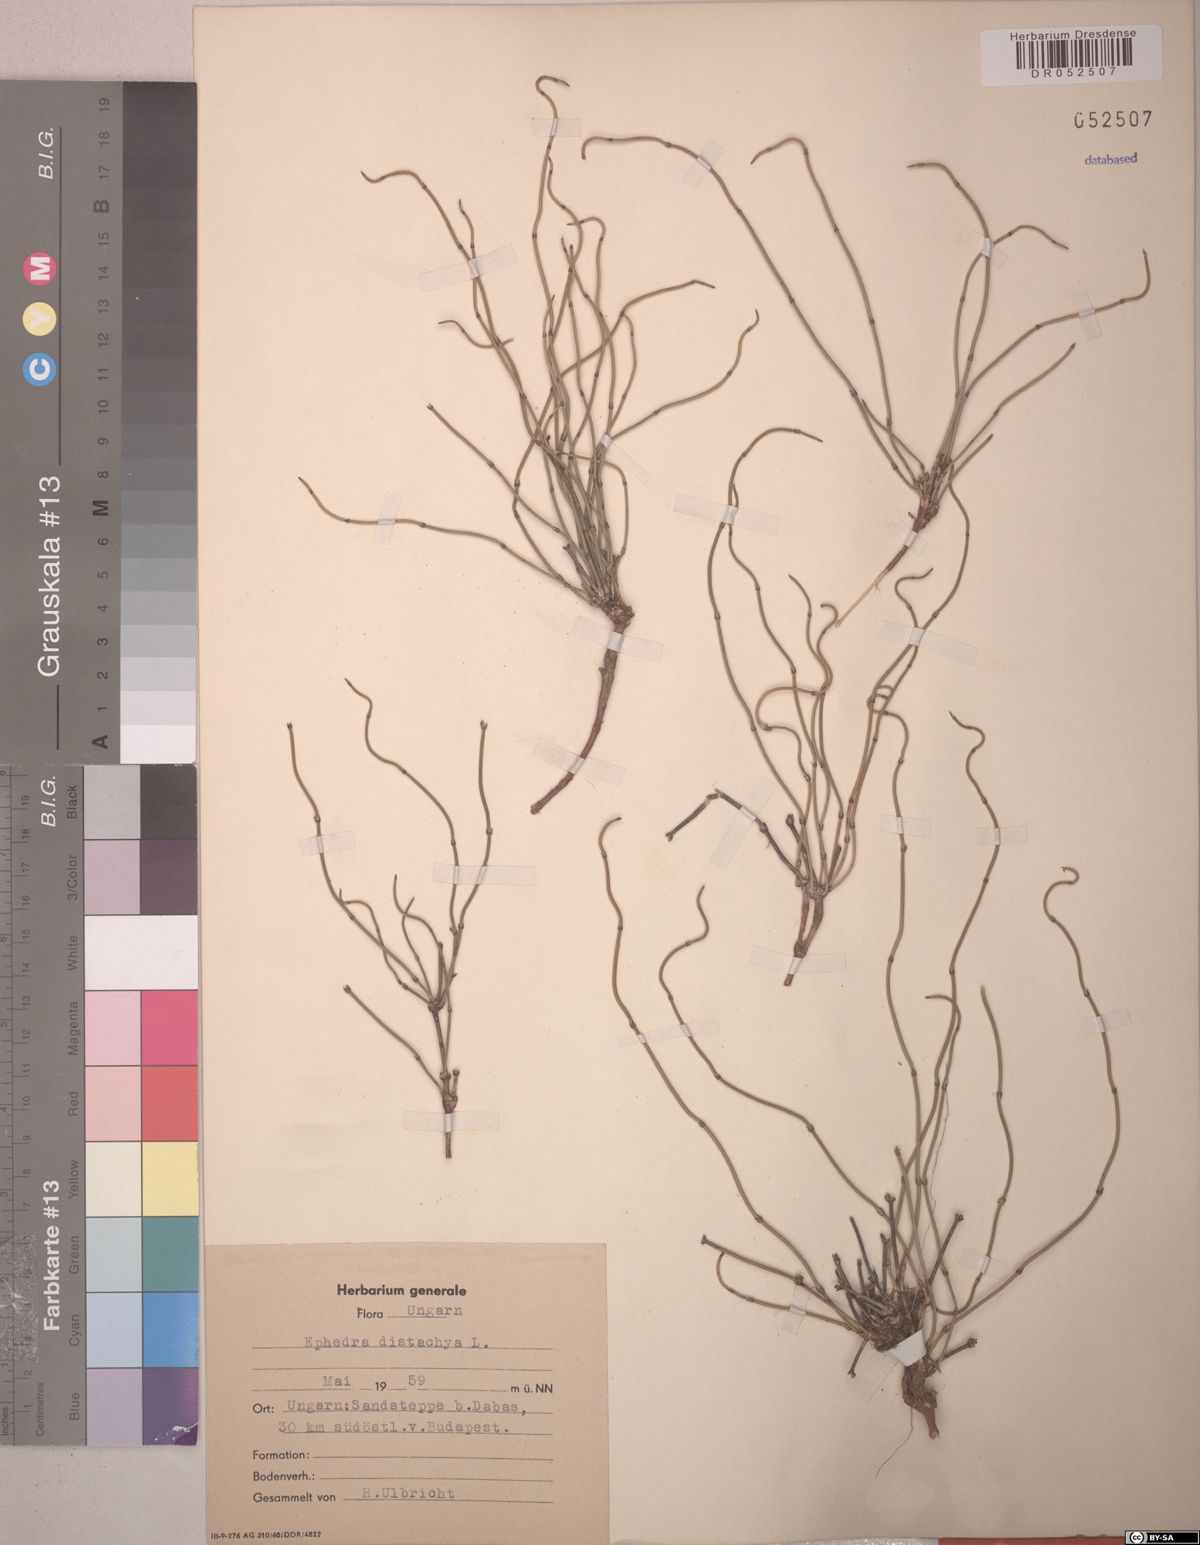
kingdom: Plantae
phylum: Tracheophyta
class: Gnetopsida
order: Ephedrales
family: Ephedraceae
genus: Ephedra
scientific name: Ephedra distachya
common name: Sea grape
